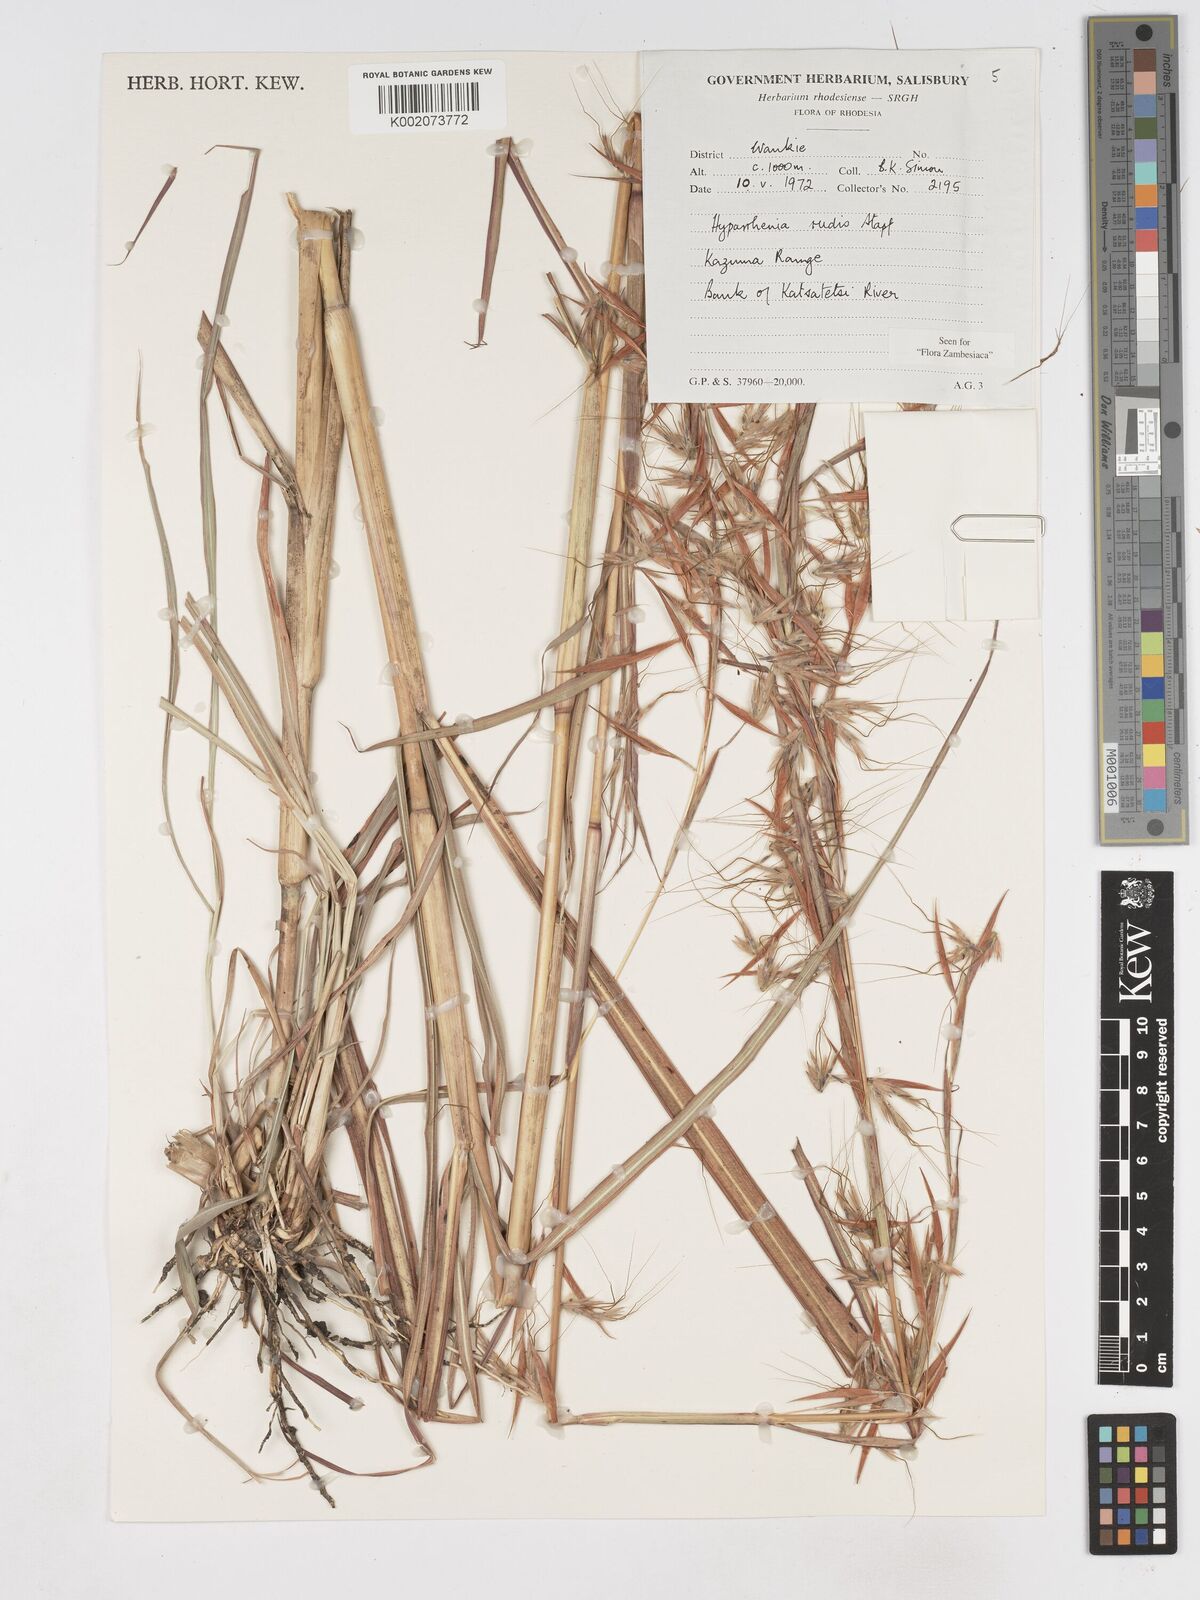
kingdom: Plantae
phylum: Tracheophyta
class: Liliopsida
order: Poales
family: Poaceae
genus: Hyparrhenia
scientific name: Hyparrhenia rudis
